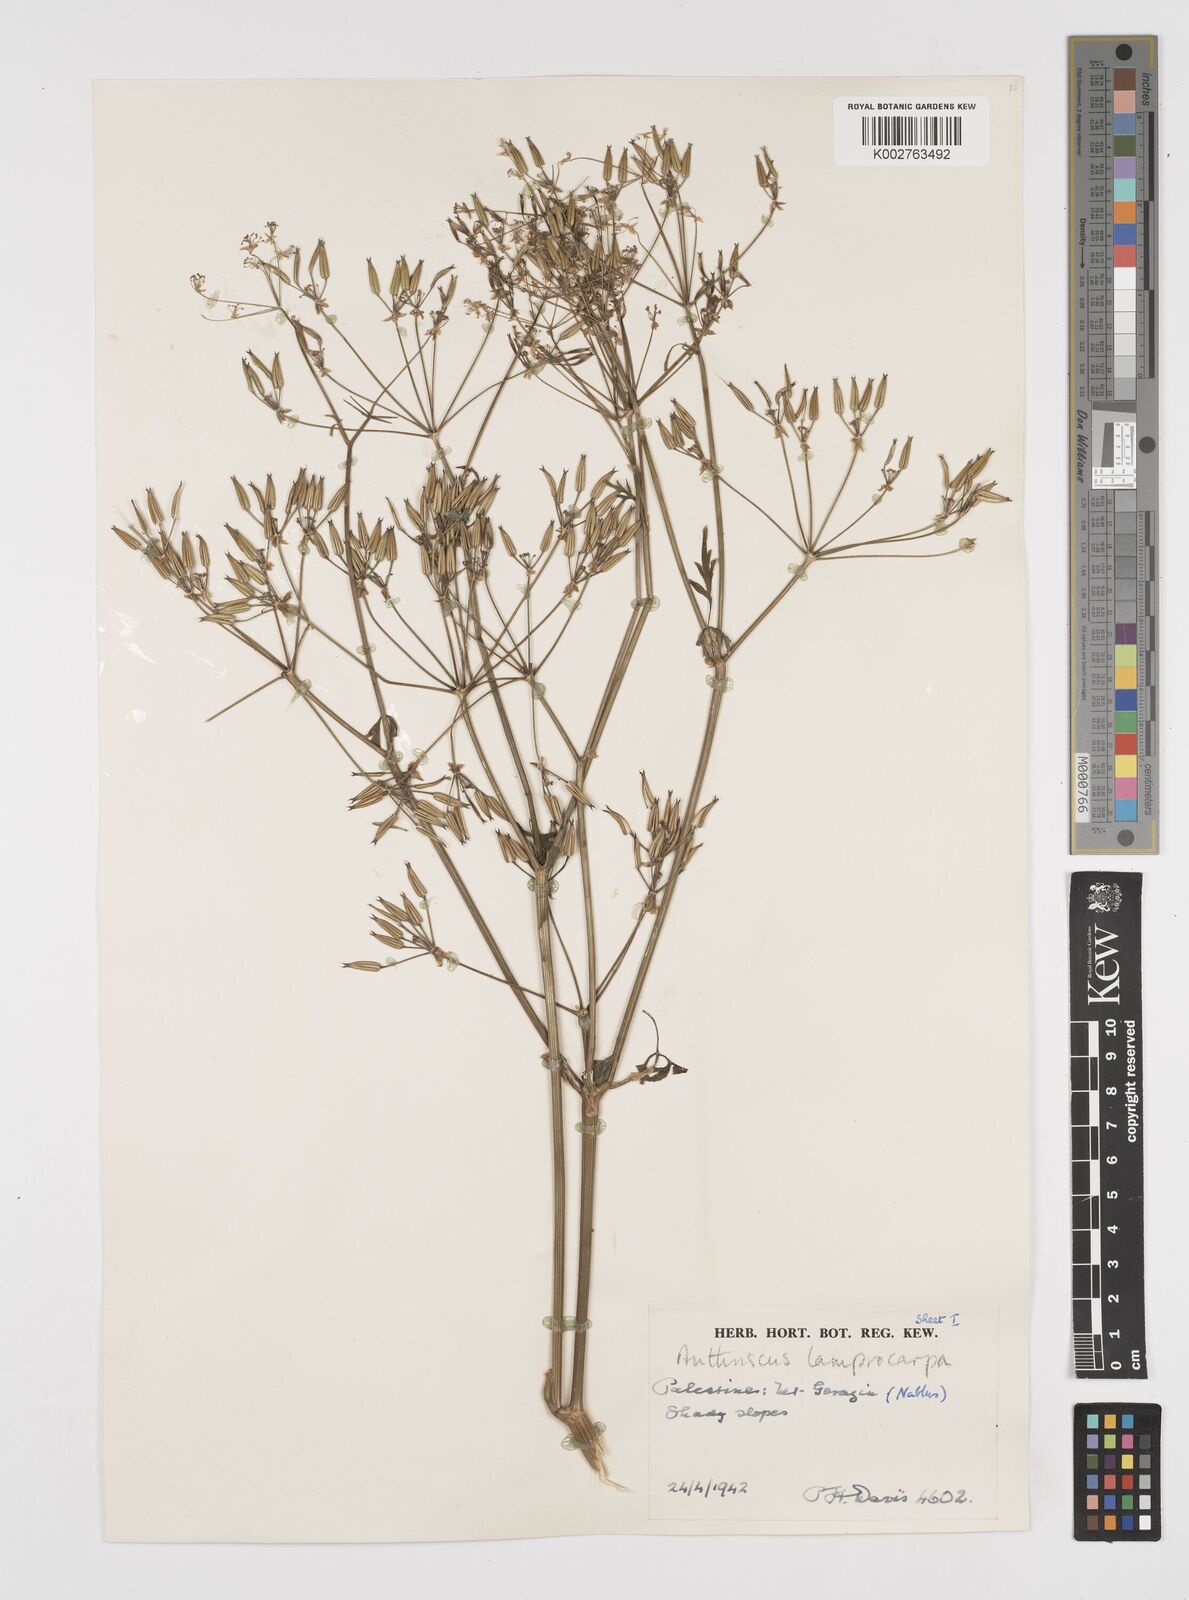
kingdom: Plantae
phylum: Tracheophyta
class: Magnoliopsida
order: Apiales
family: Apiaceae
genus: Anthriscus
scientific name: Anthriscus lamprocarpa
